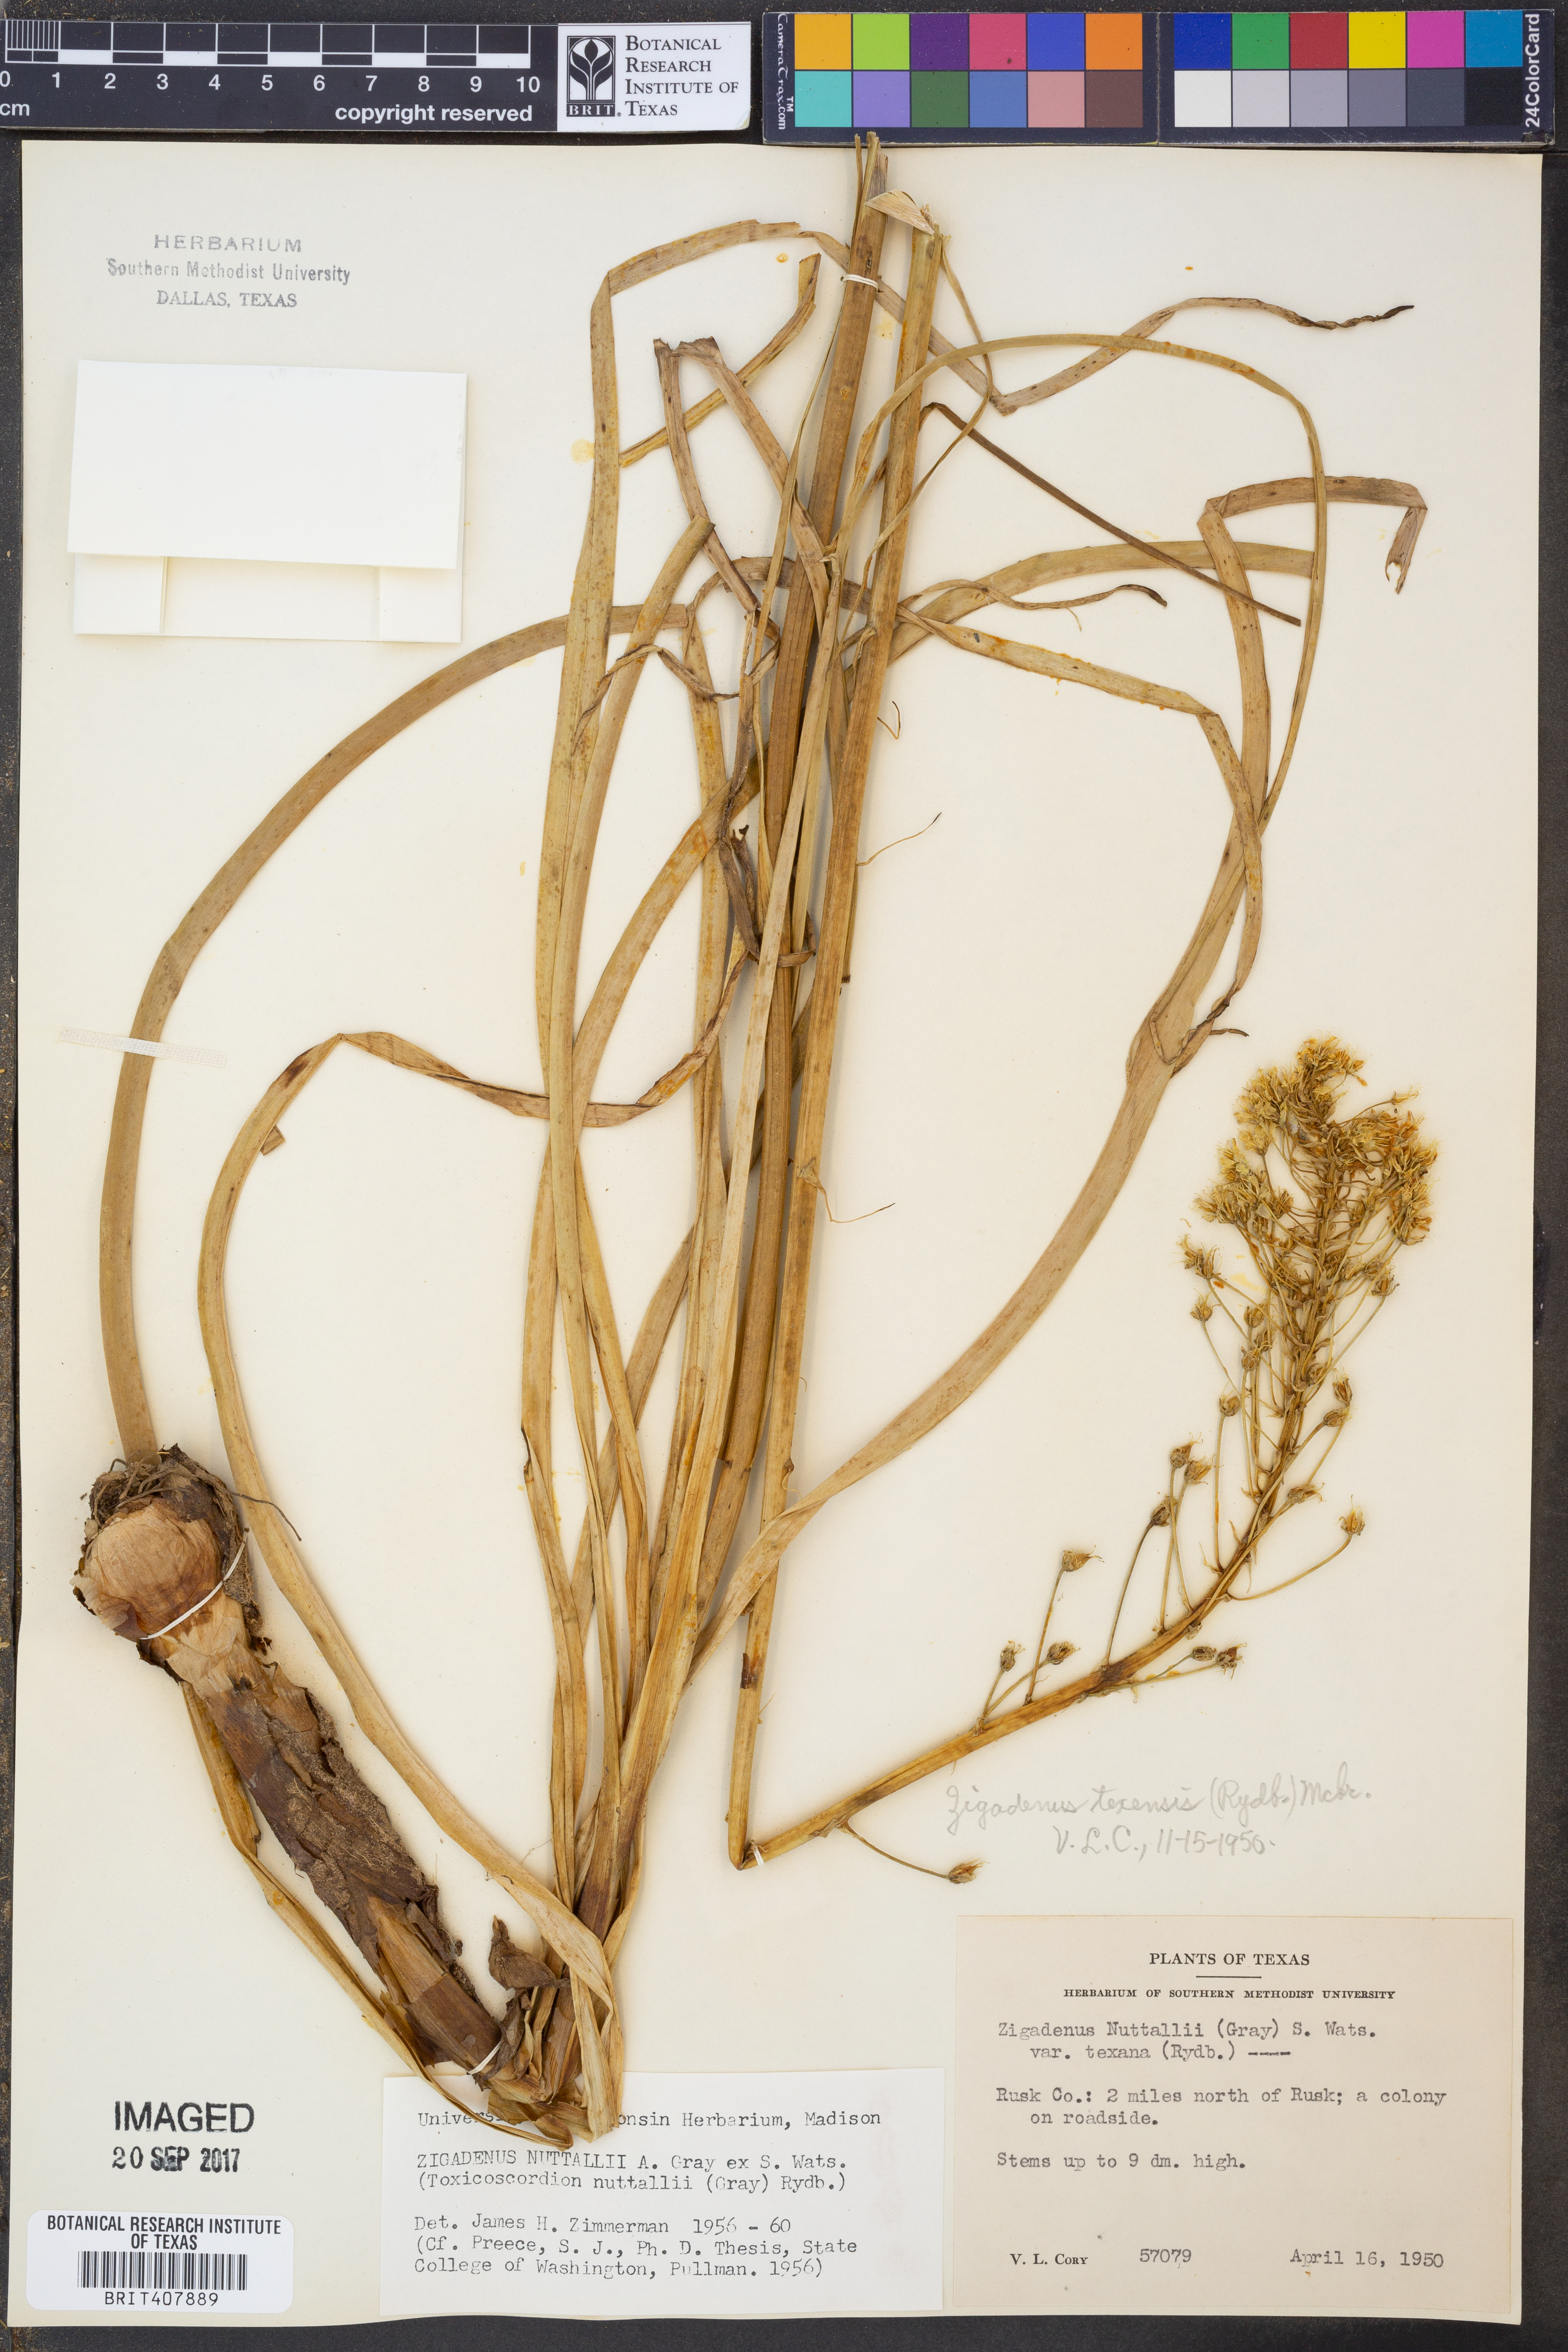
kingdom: Plantae
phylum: Tracheophyta
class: Liliopsida
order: Liliales
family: Melanthiaceae
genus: Toxicoscordion
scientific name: Toxicoscordion nuttallii
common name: Poison sego
